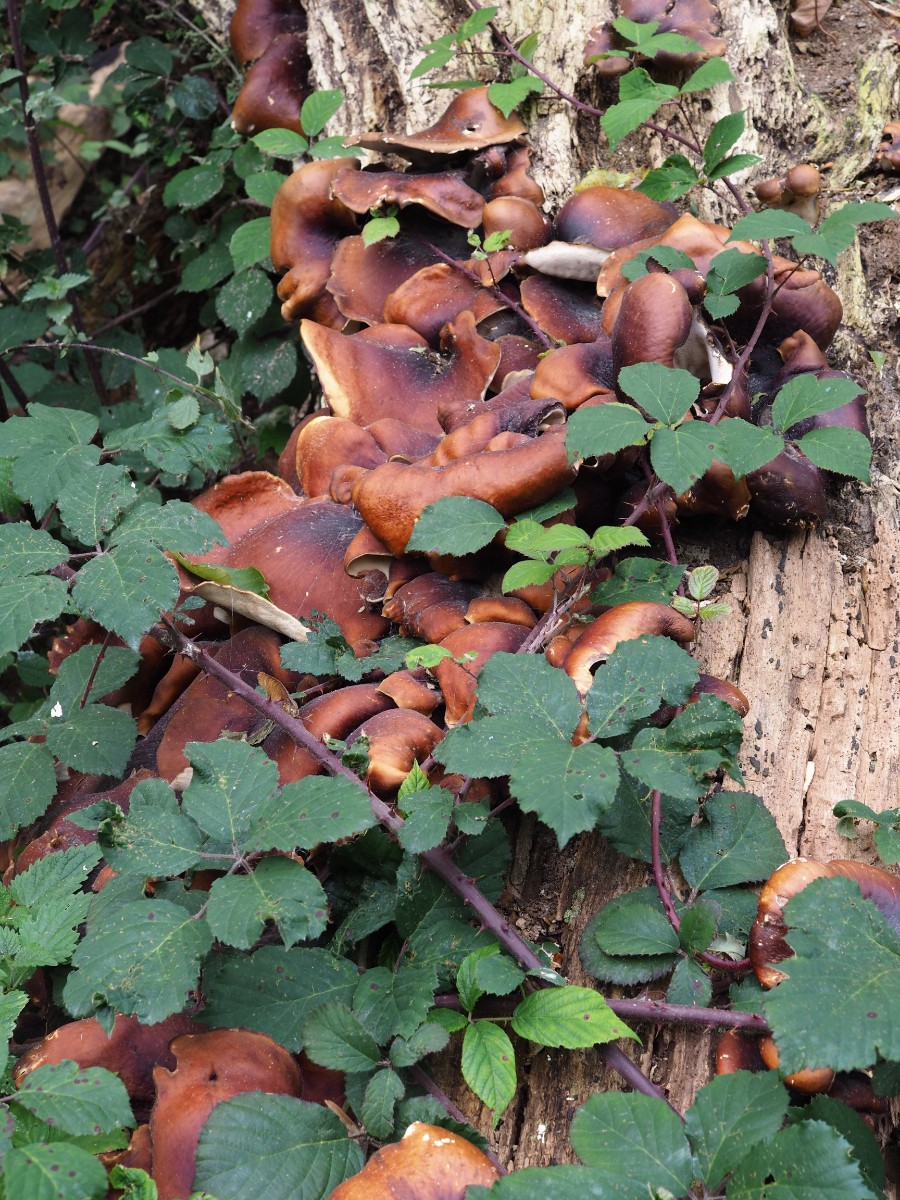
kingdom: Fungi
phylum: Basidiomycota
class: Agaricomycetes
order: Polyporales
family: Polyporaceae
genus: Picipes
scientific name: Picipes badius
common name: kastaniebrun stilkporesvamp
